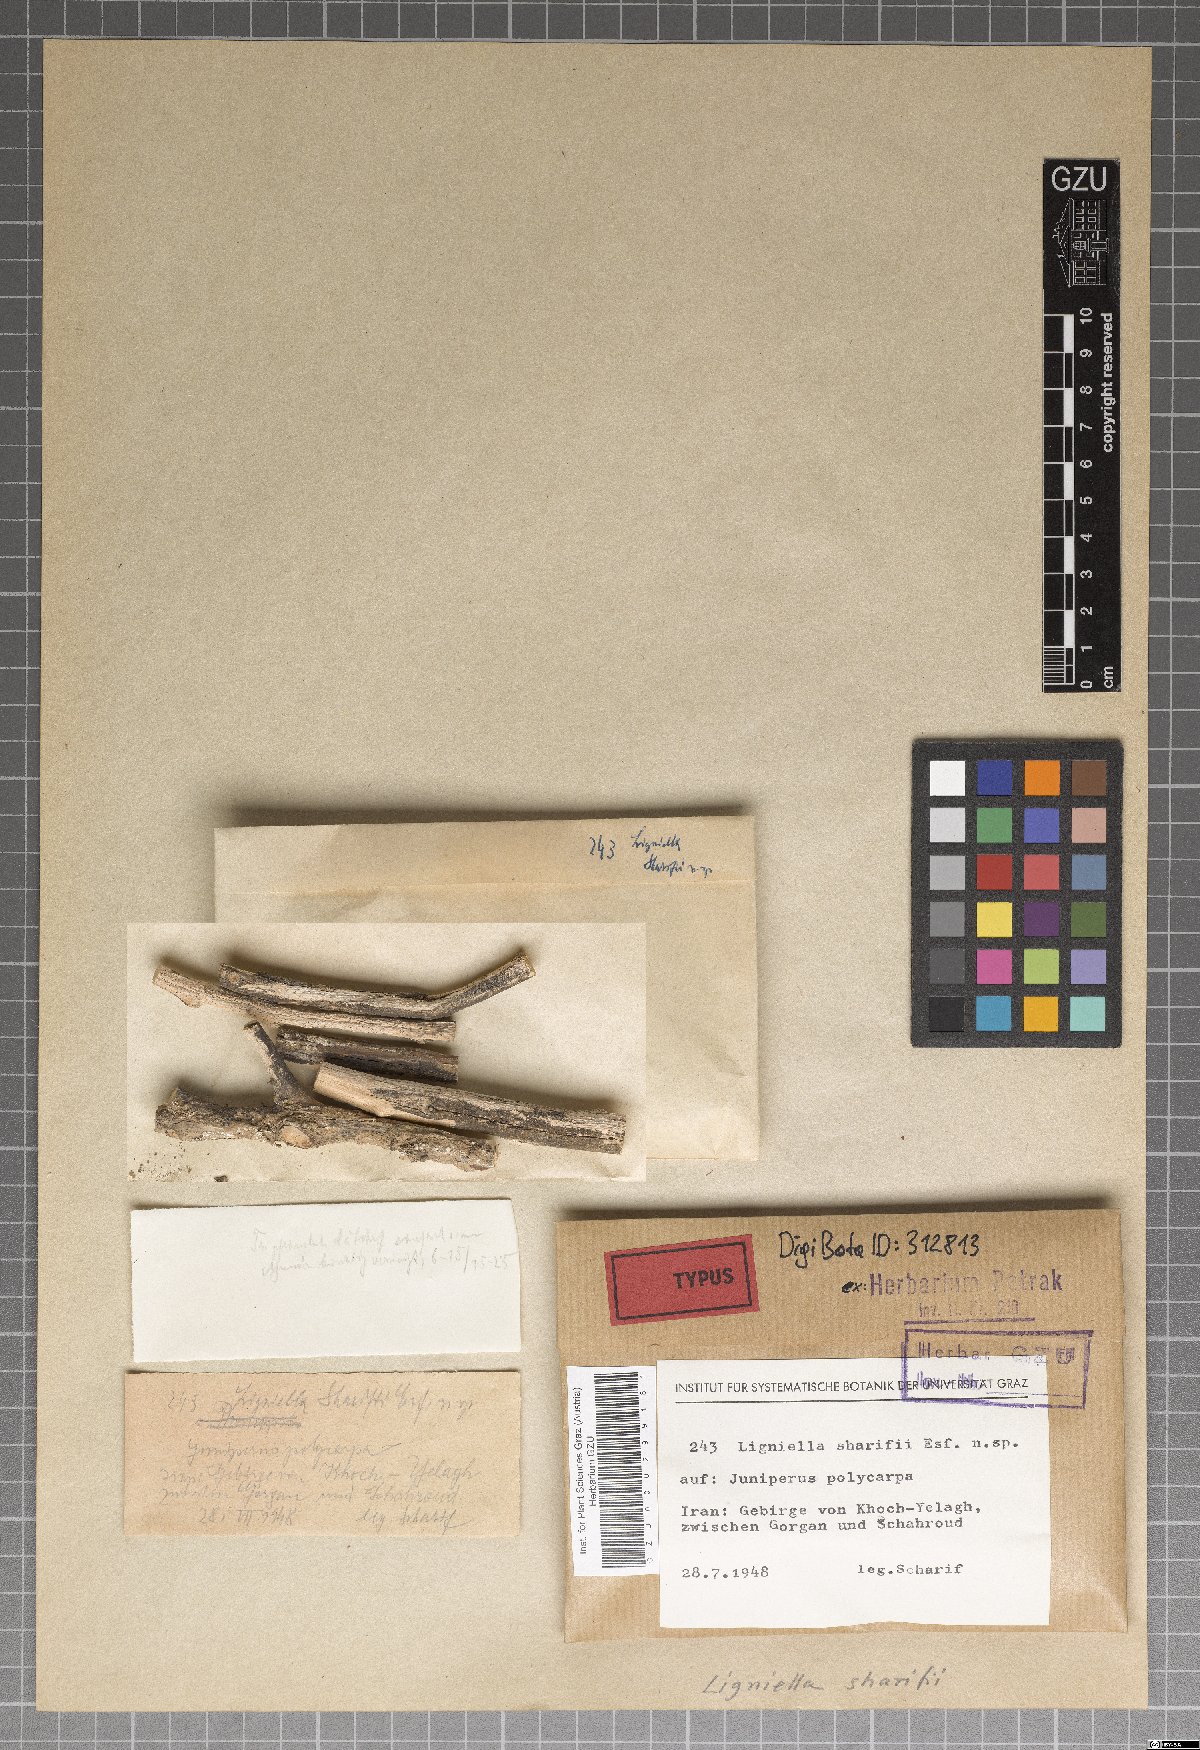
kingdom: Fungi
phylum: Ascomycota
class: Sordariomycetes
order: Diaporthales
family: Gnomoniaceae
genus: Ligniella
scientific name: Ligniella sharifii
